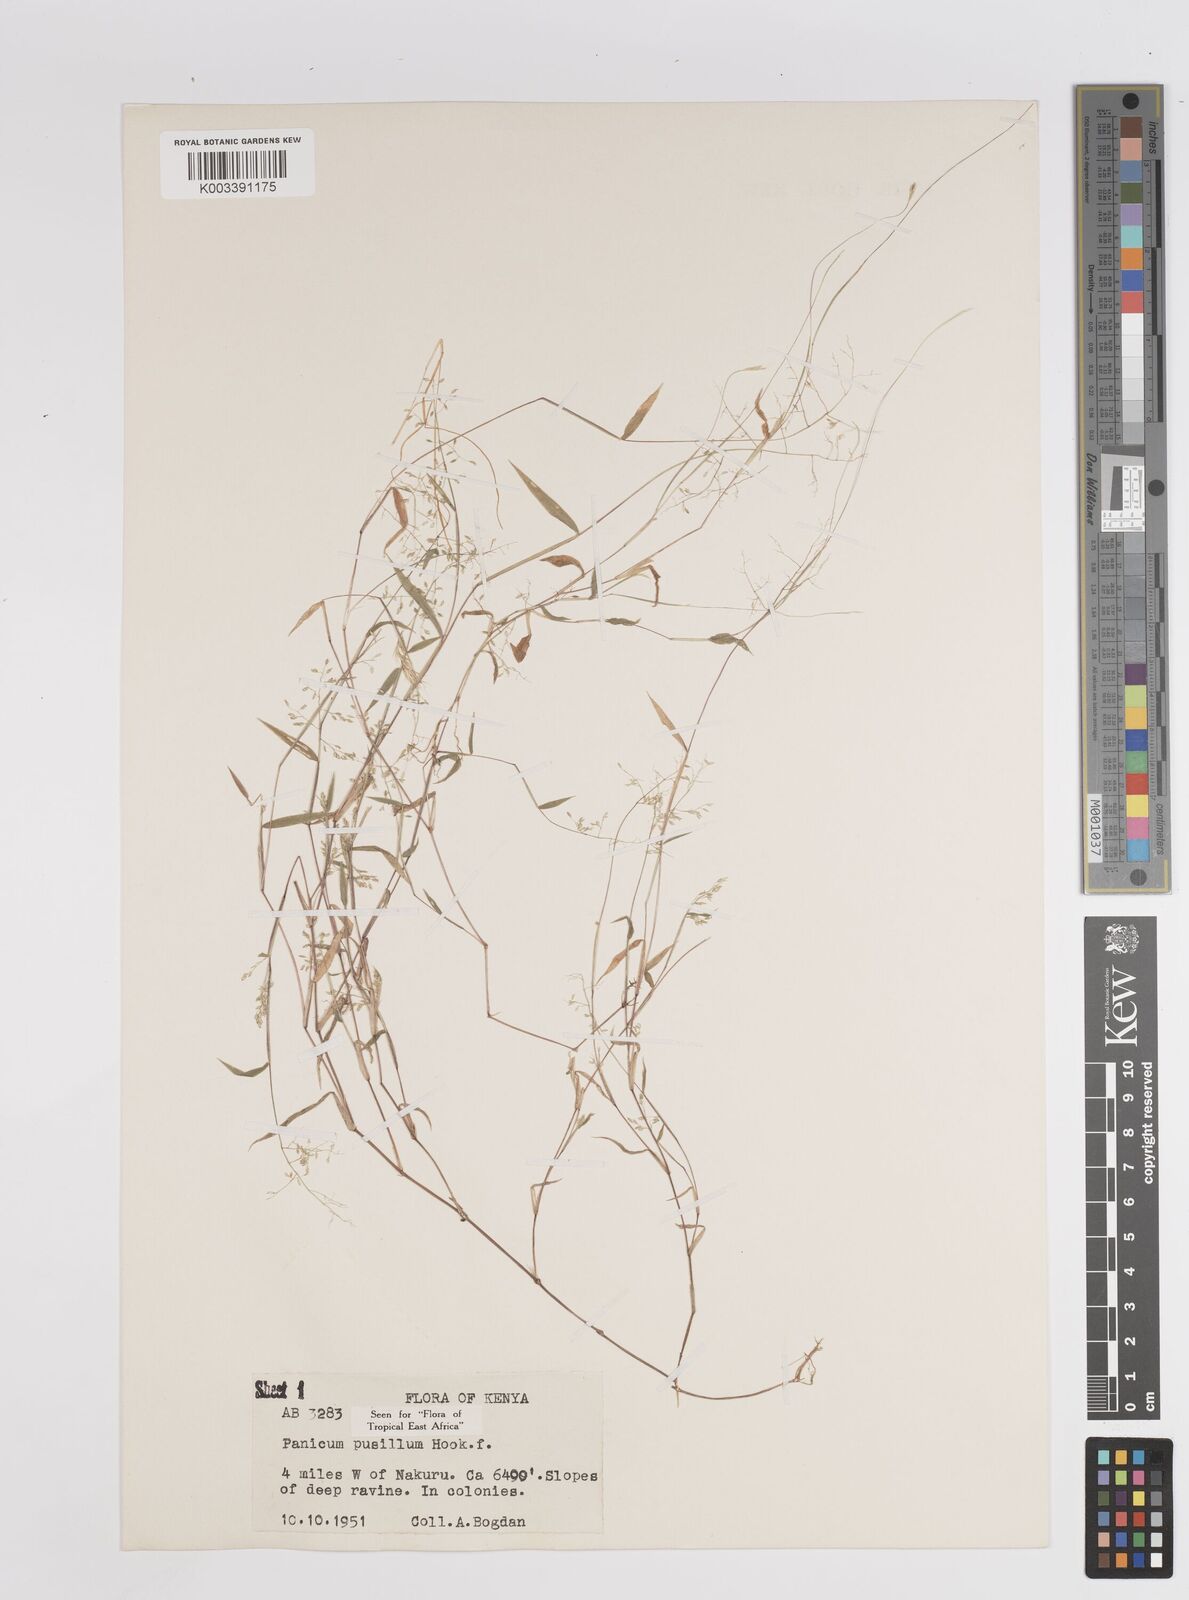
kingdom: Plantae
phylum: Tracheophyta
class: Liliopsida
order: Poales
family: Poaceae
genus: Panicum
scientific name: Panicum pusillum
